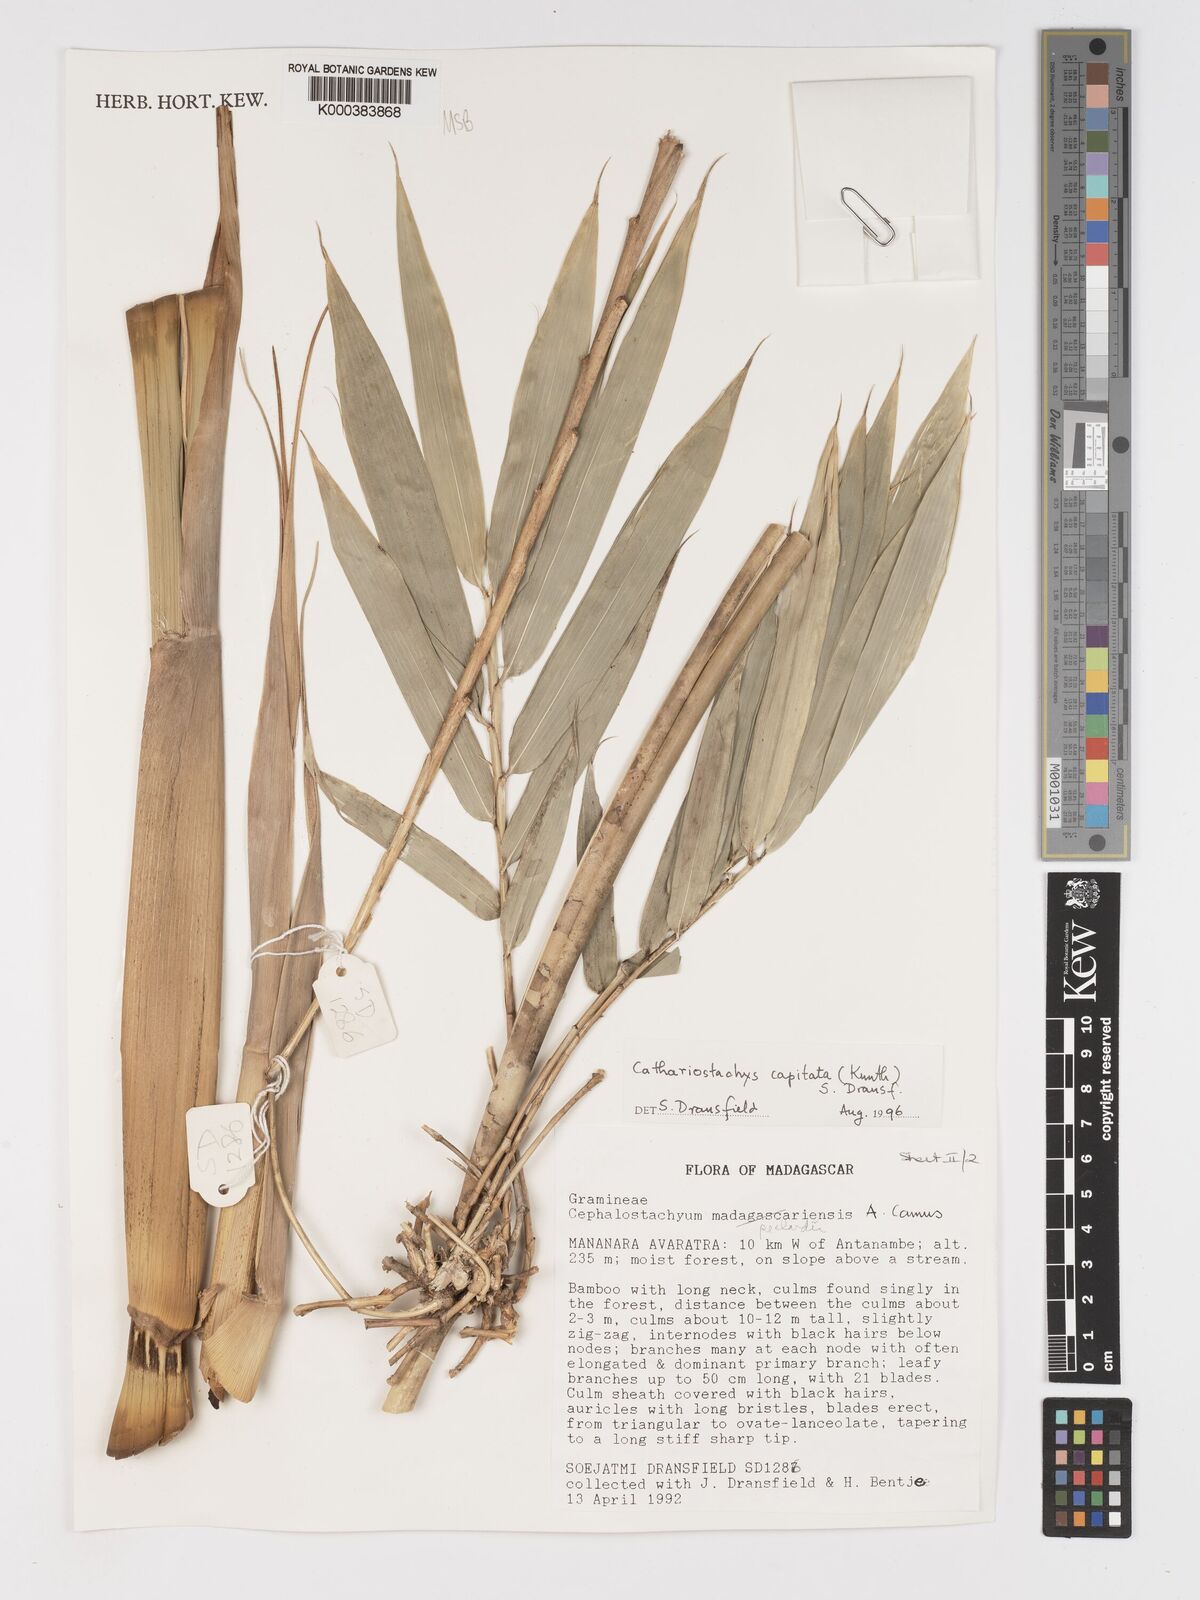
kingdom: Plantae
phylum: Tracheophyta
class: Liliopsida
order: Poales
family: Poaceae
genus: Cathariostachys
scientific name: Cathariostachys capitata
